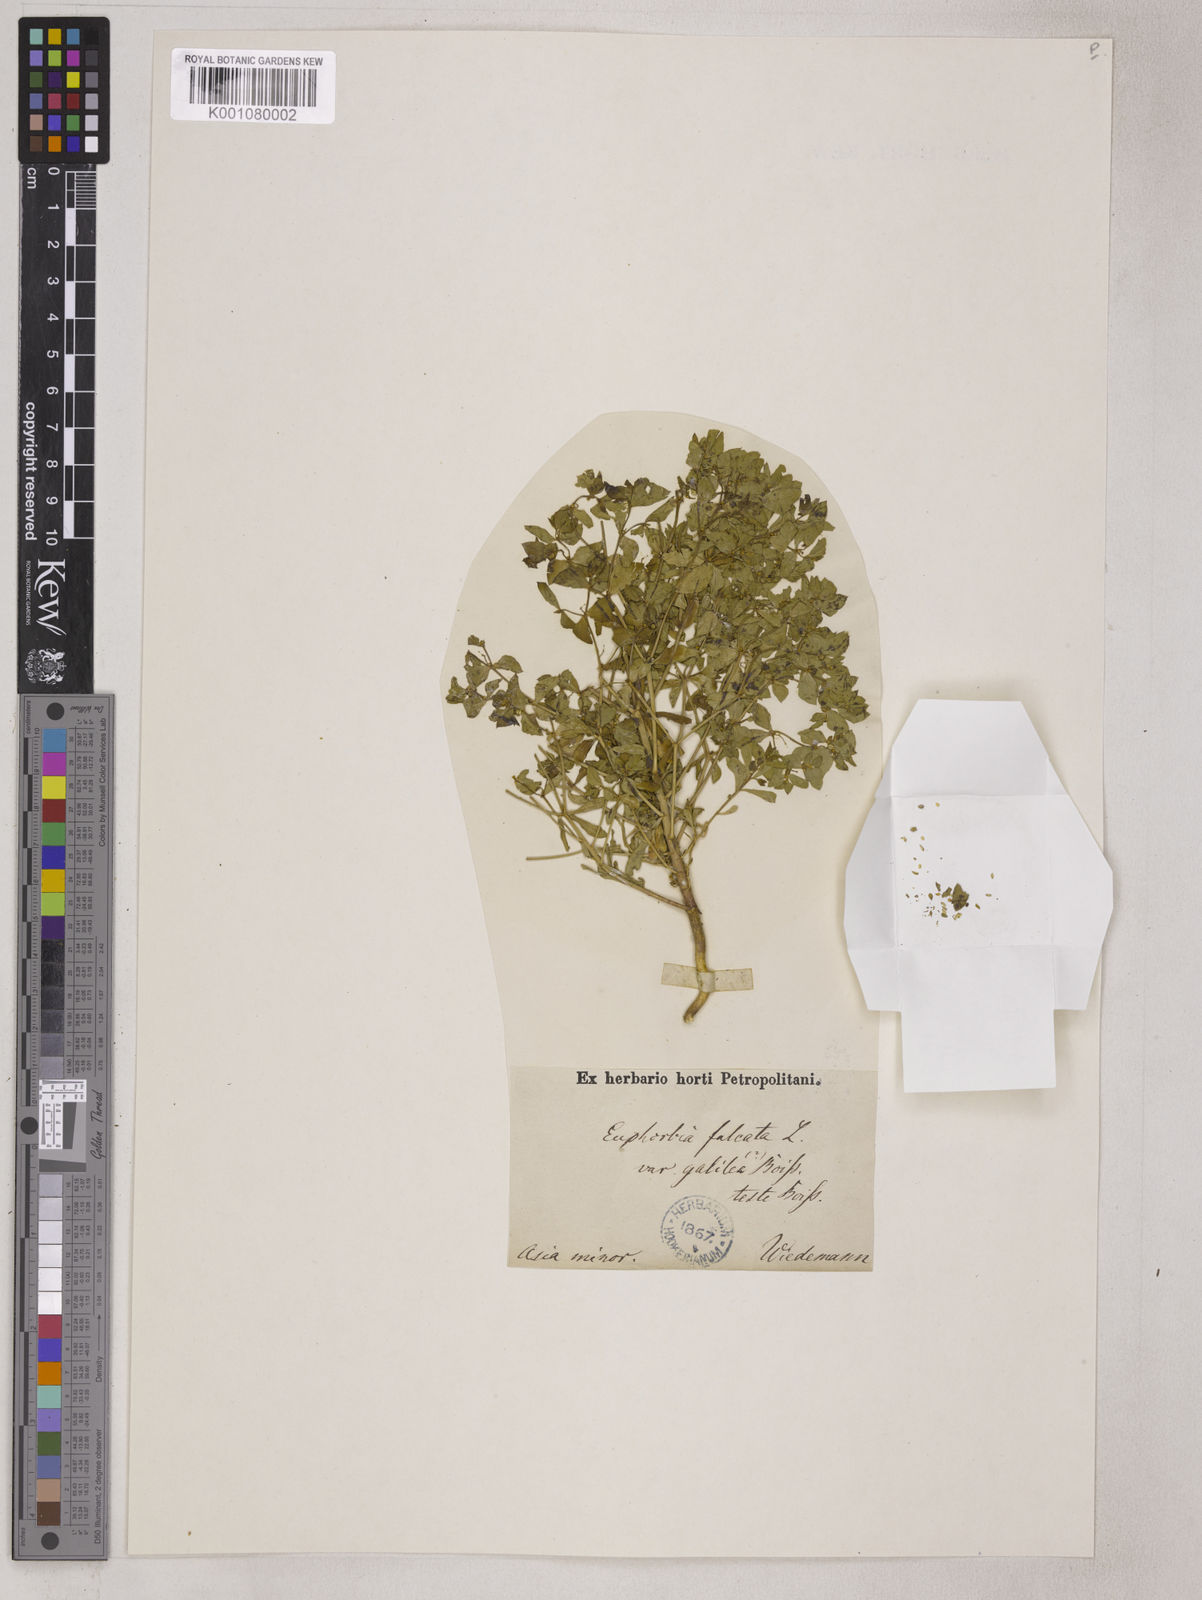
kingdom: Plantae
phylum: Tracheophyta
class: Magnoliopsida
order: Malpighiales
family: Euphorbiaceae
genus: Euphorbia
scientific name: Euphorbia falcata
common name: Sickle spurge
